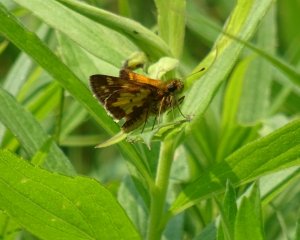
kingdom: Animalia
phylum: Arthropoda
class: Insecta
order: Lepidoptera
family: Hesperiidae
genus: Polites
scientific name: Polites coras
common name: Peck's Skipper
